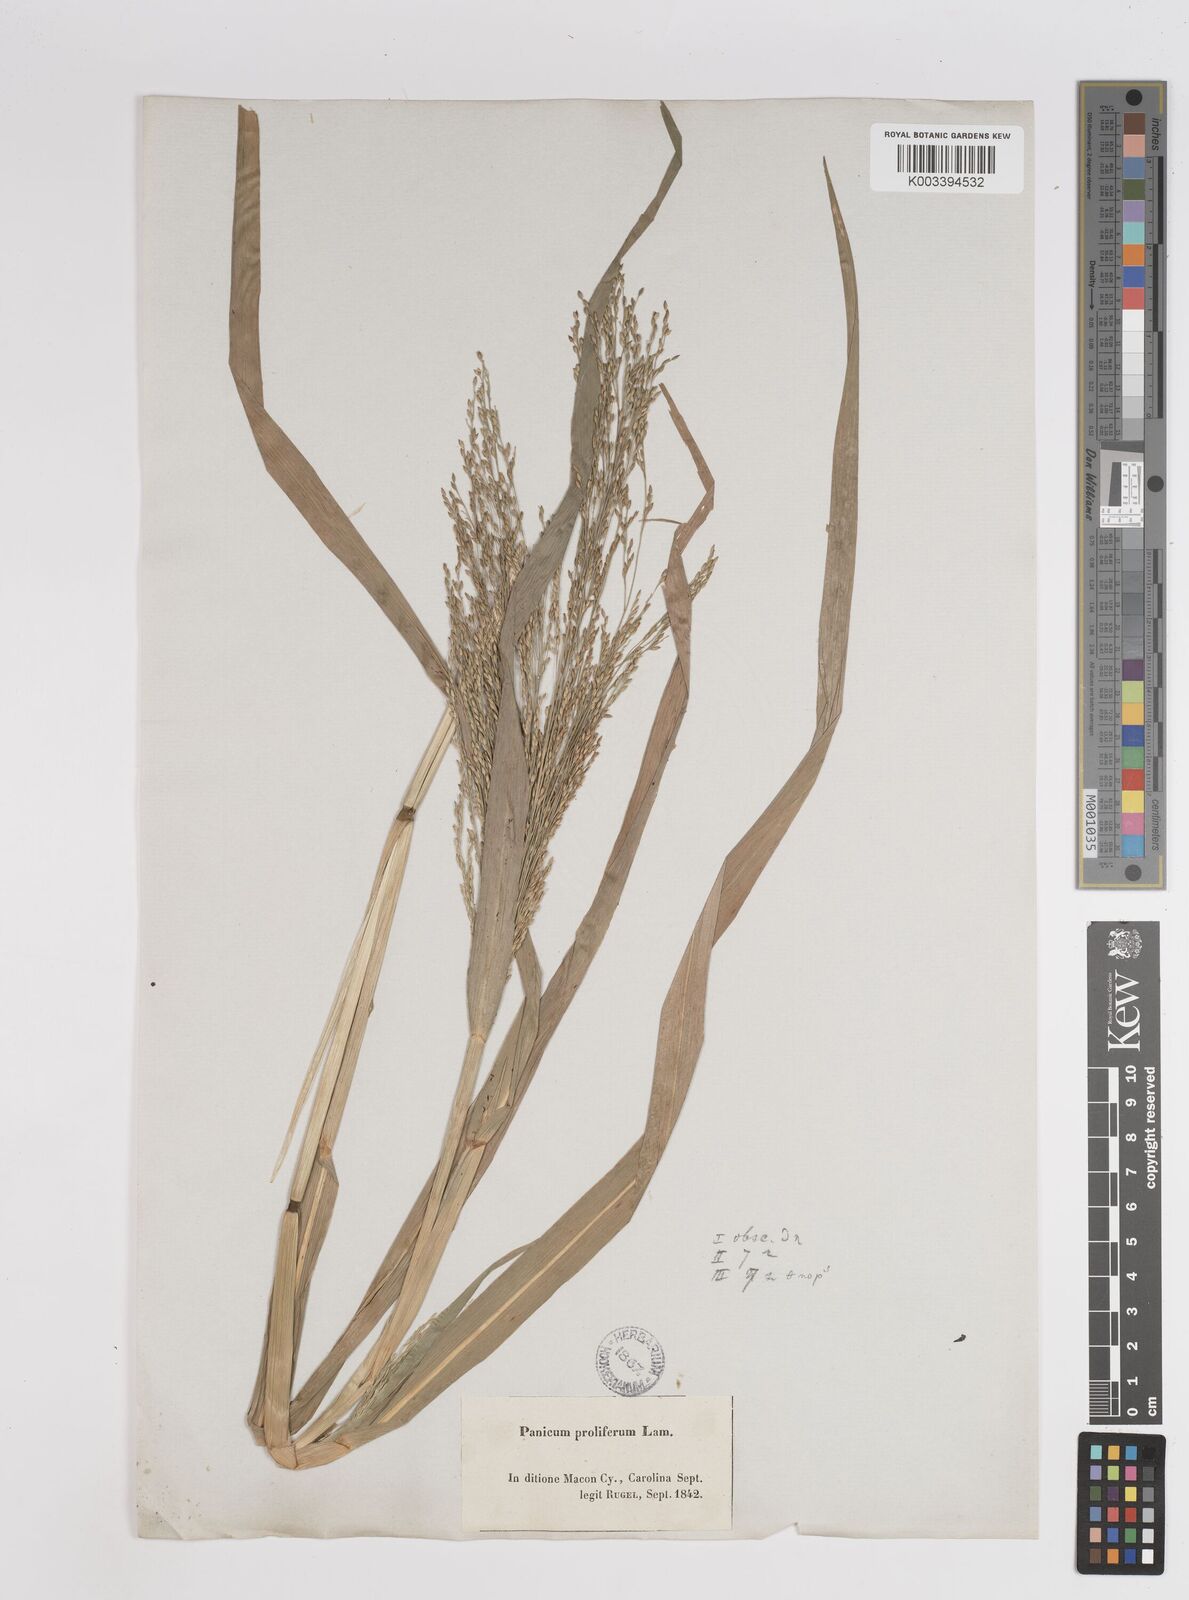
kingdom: Plantae
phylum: Tracheophyta
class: Liliopsida
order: Poales
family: Poaceae
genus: Panicum
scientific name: Panicum dichotomiflorum
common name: Autumn millet
